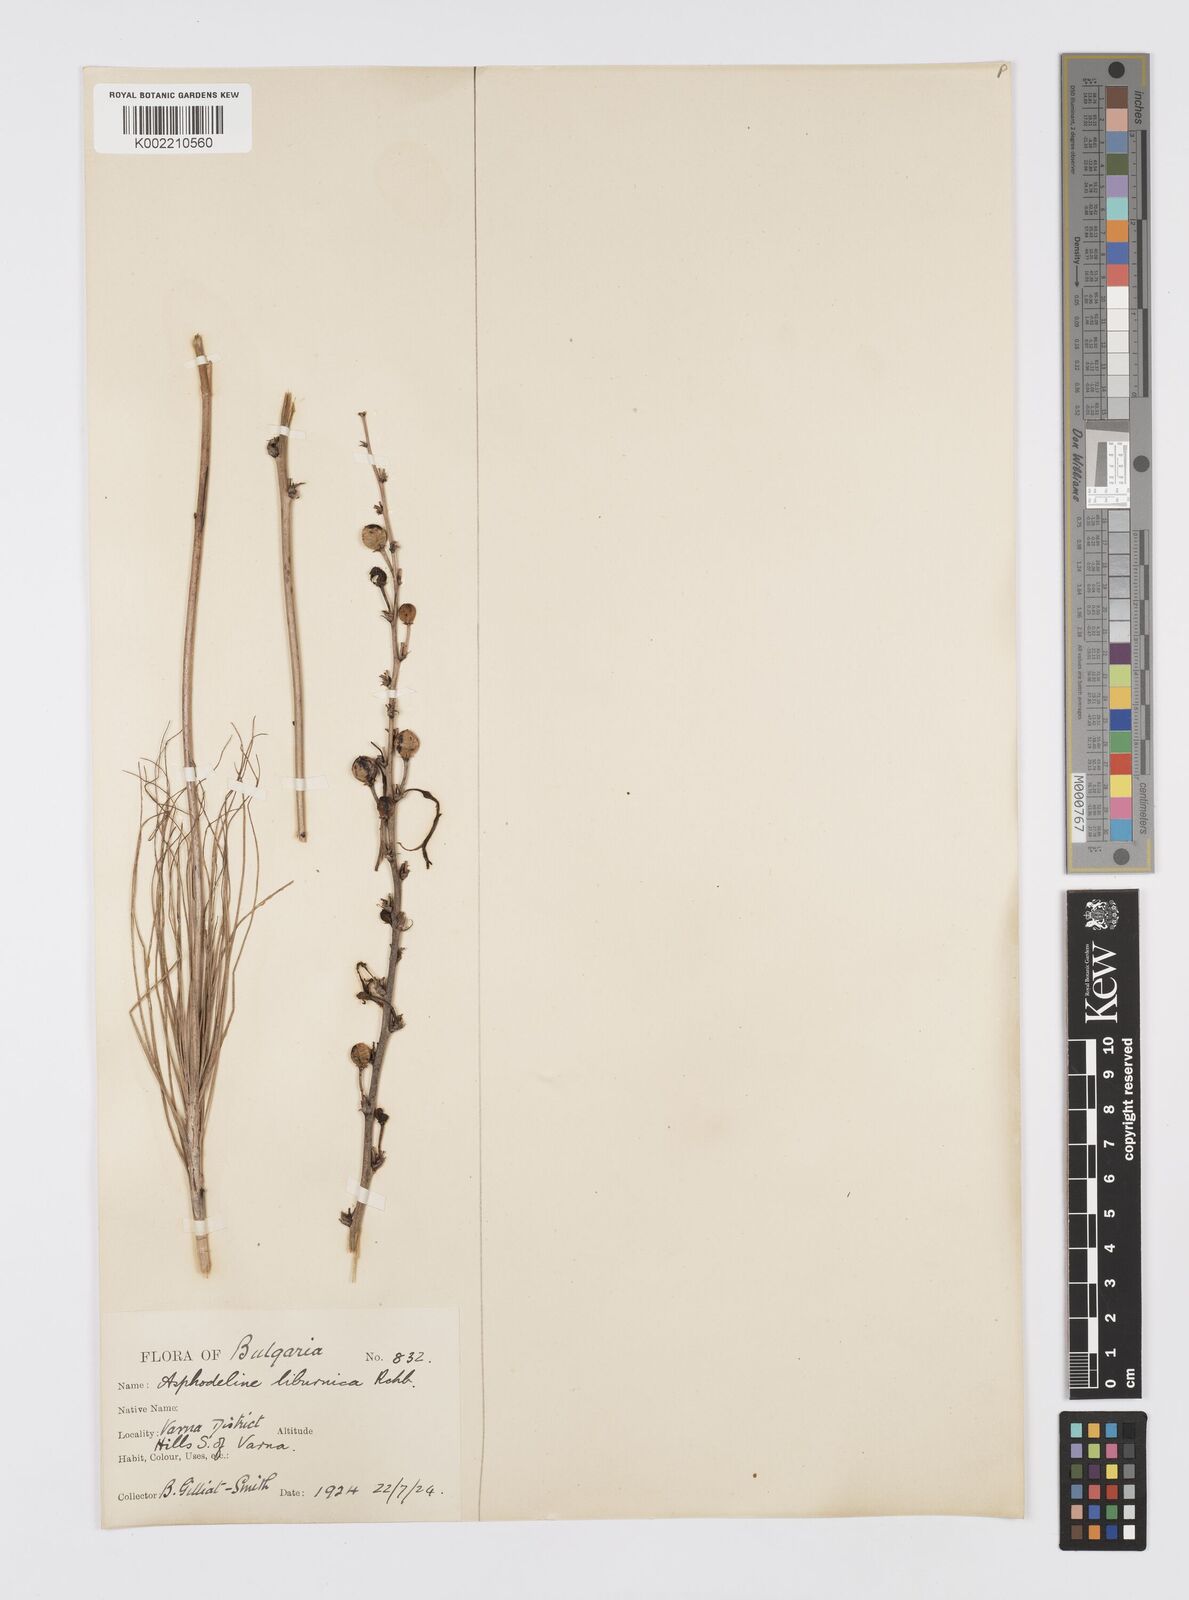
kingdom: Plantae
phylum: Tracheophyta
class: Liliopsida
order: Asparagales
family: Asphodelaceae
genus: Asphodeline
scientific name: Asphodeline liburnica
